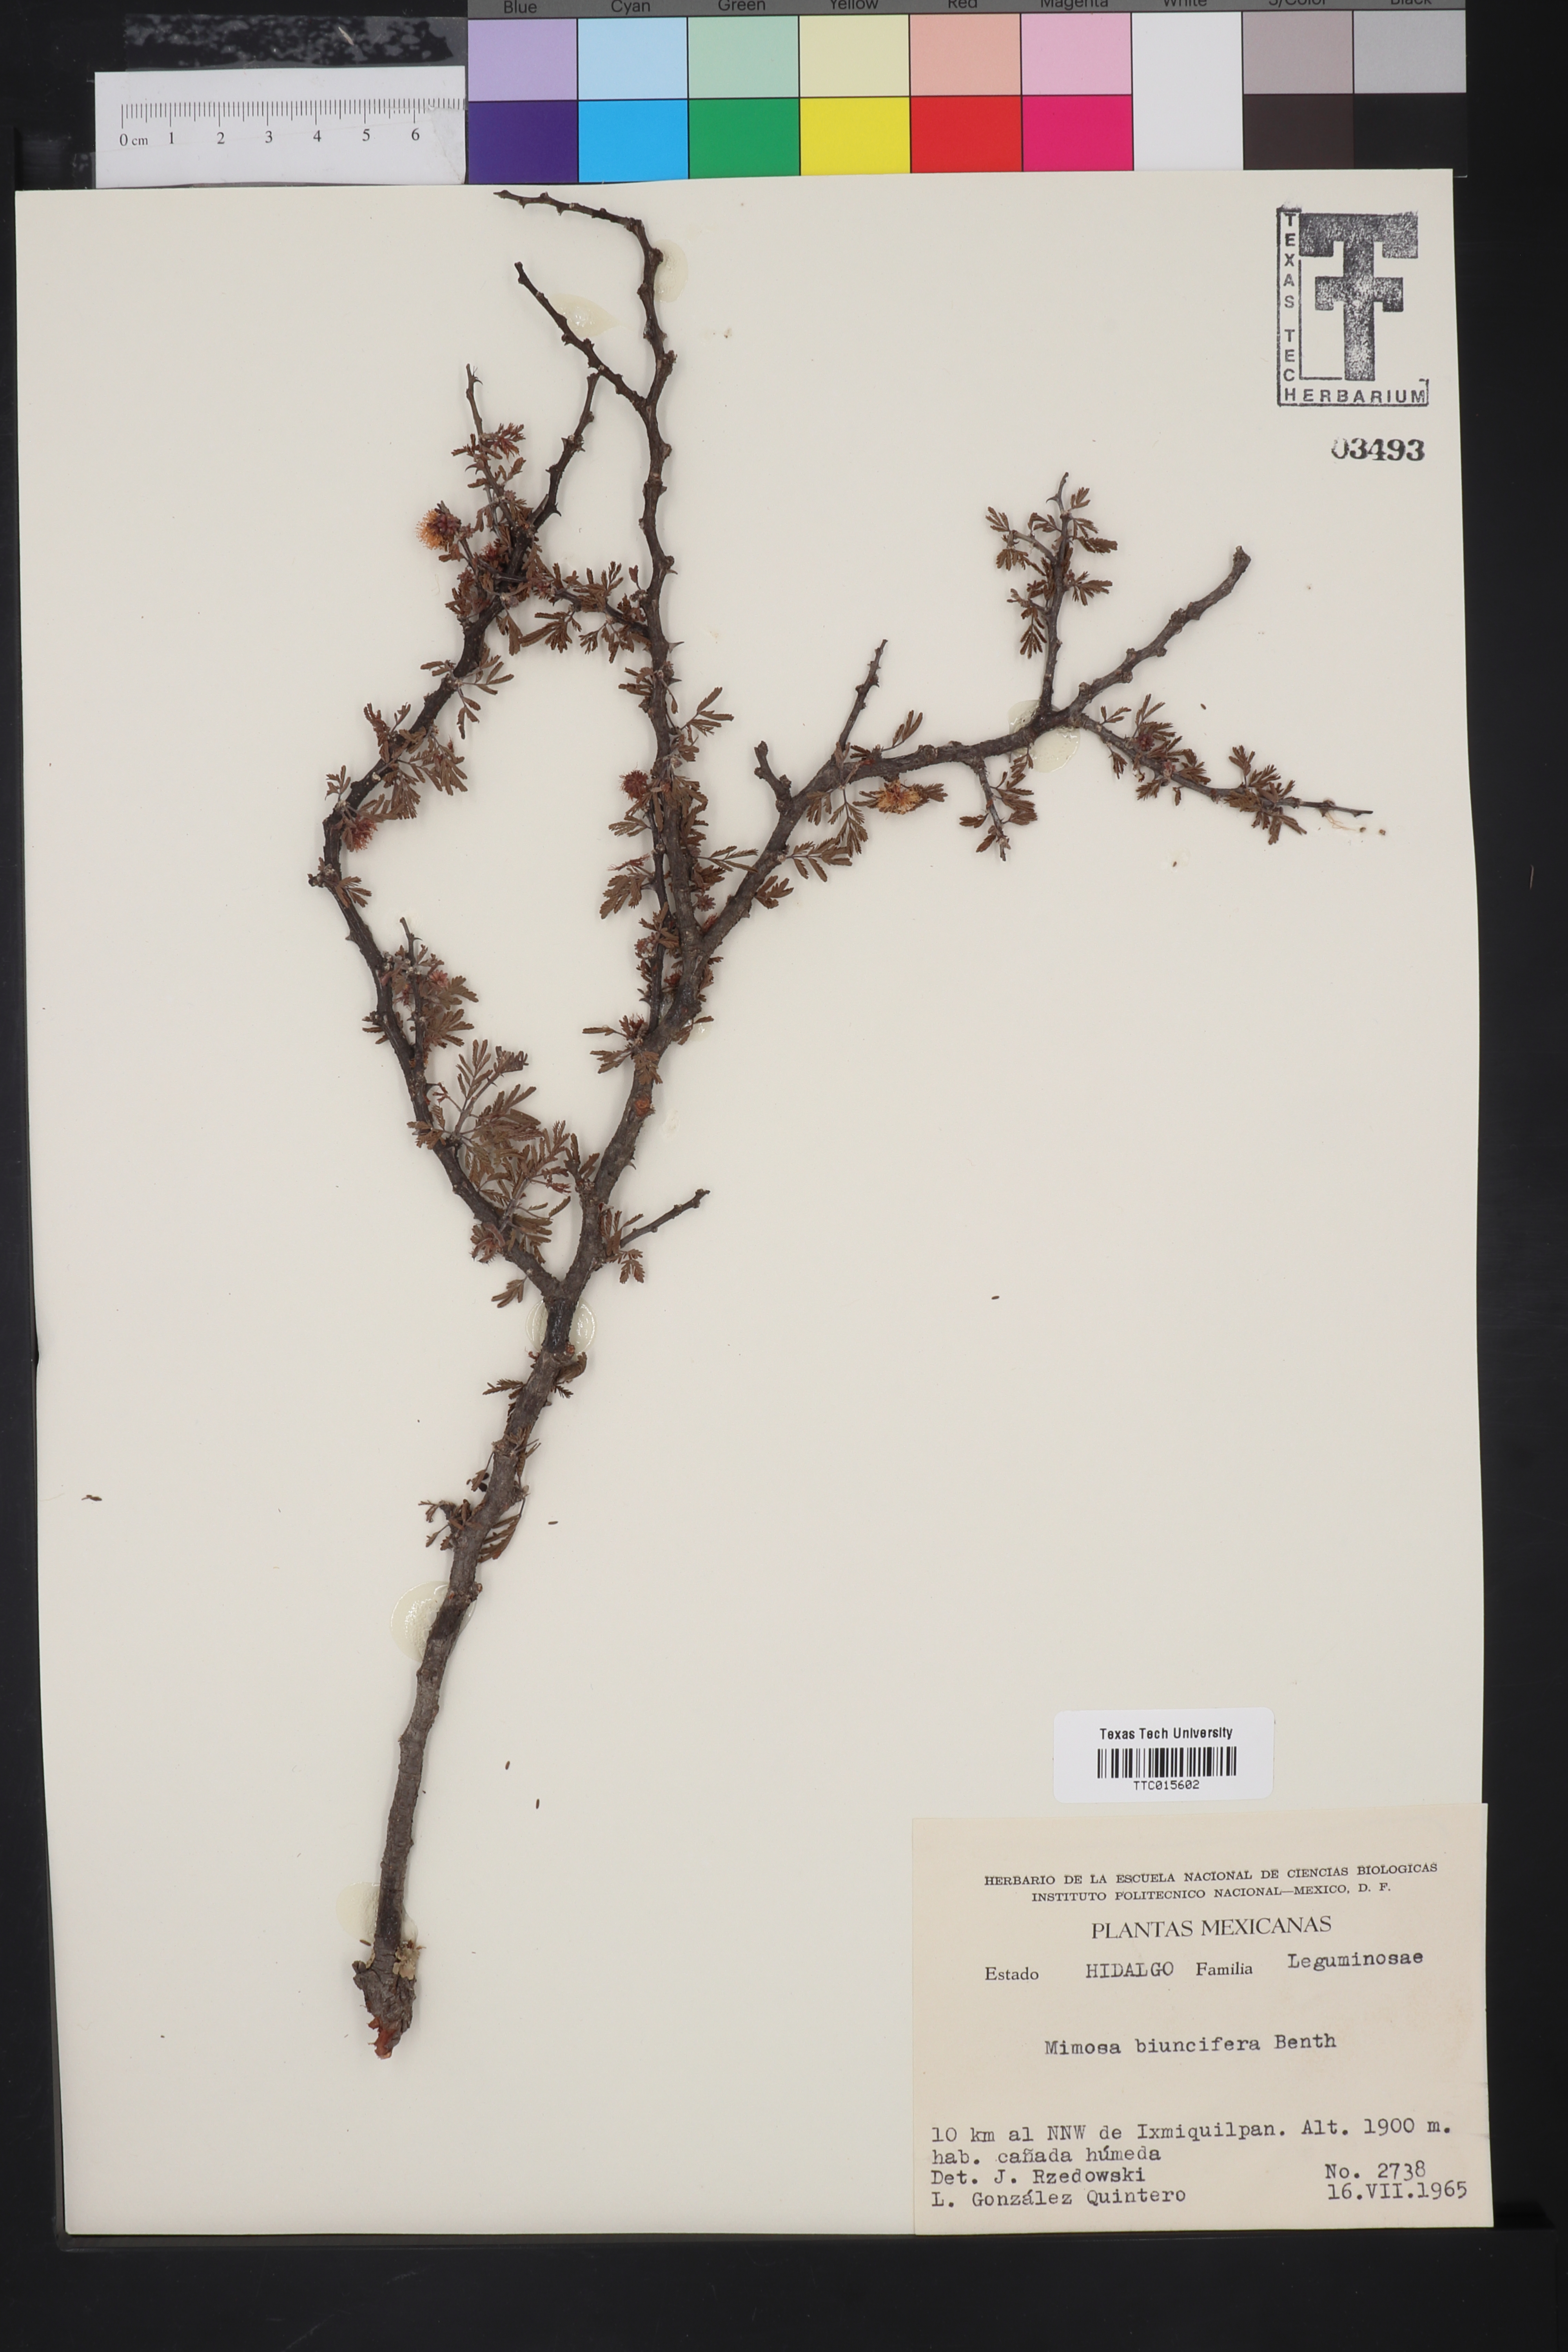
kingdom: Plantae
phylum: Tracheophyta
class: Magnoliopsida
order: Fabales
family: Fabaceae
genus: Mimosa
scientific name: Mimosa biuncifera
